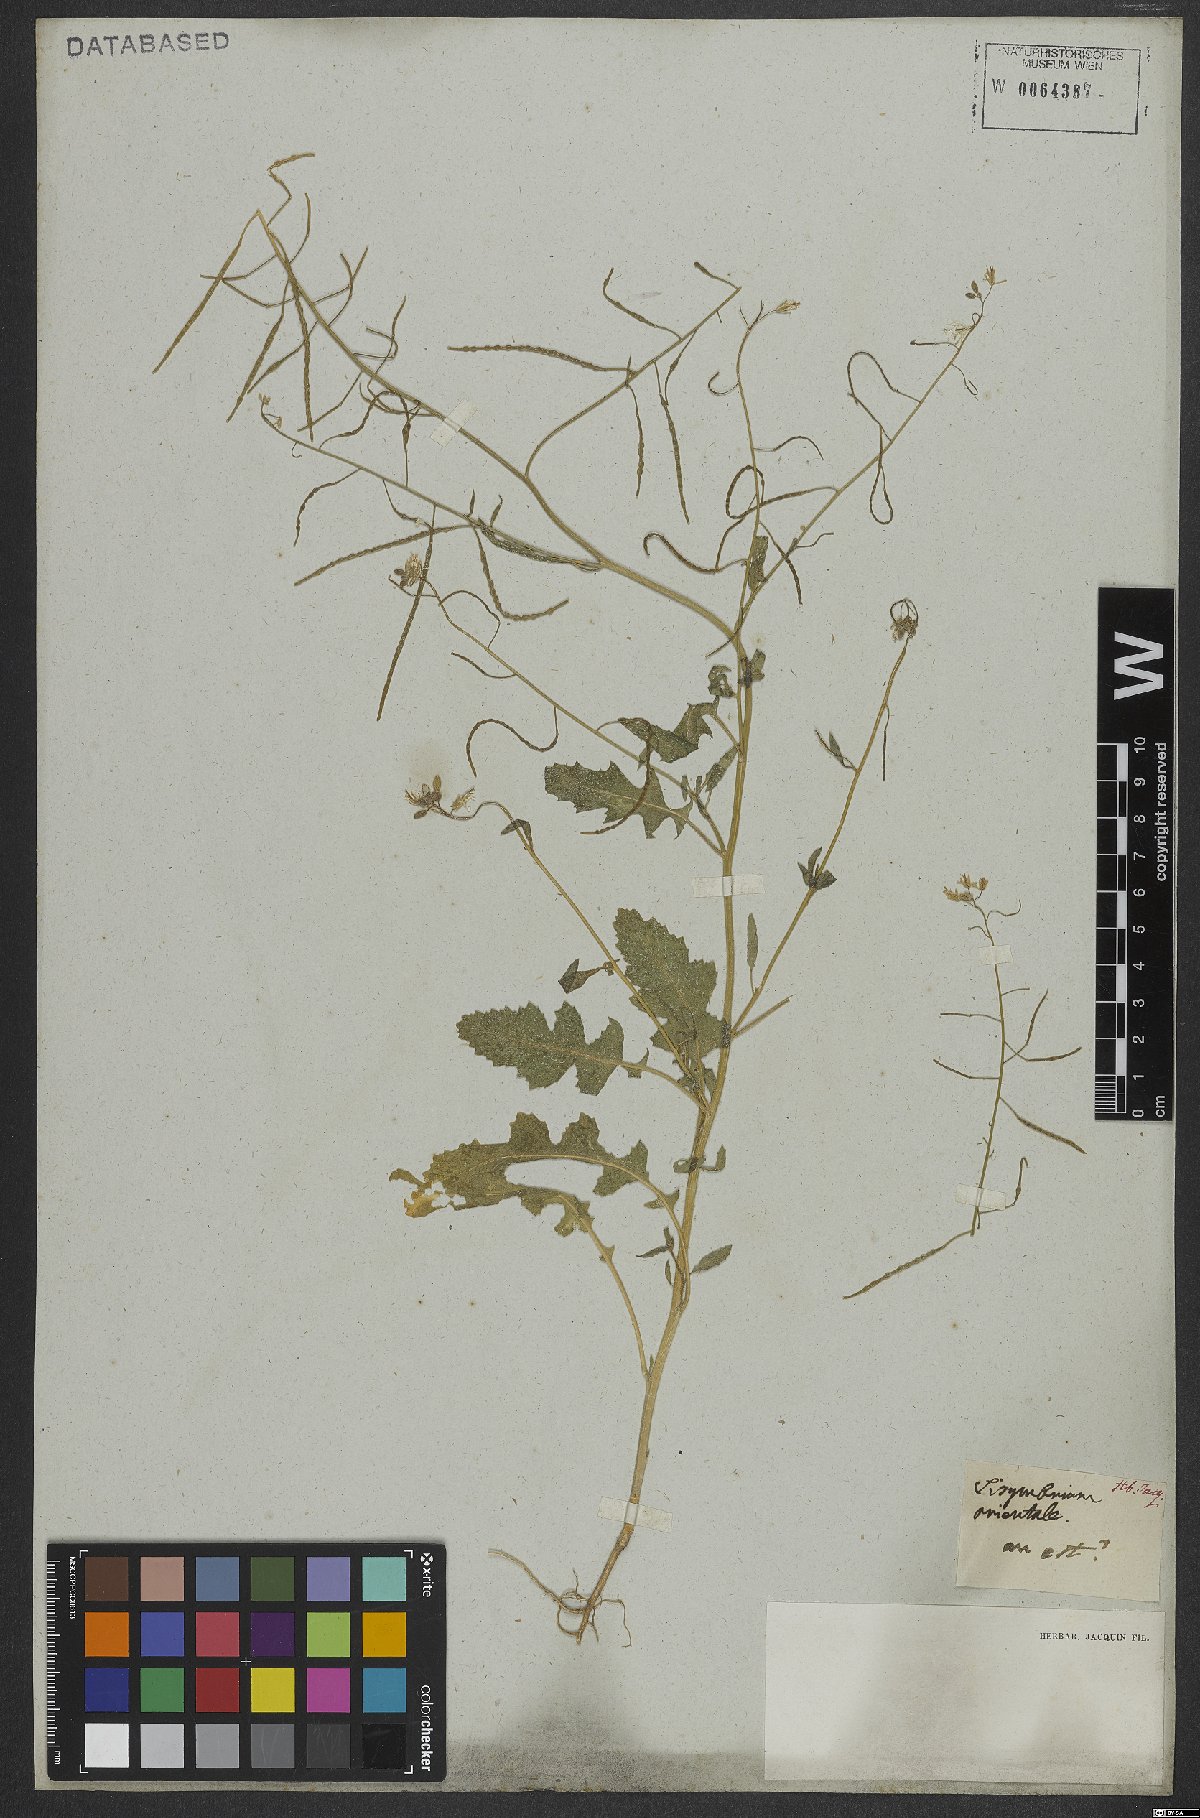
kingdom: Plantae
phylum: Tracheophyta
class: Magnoliopsida
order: Brassicales
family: Brassicaceae
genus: Sisymbrium
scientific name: Sisymbrium orientale
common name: Eastern rocket
